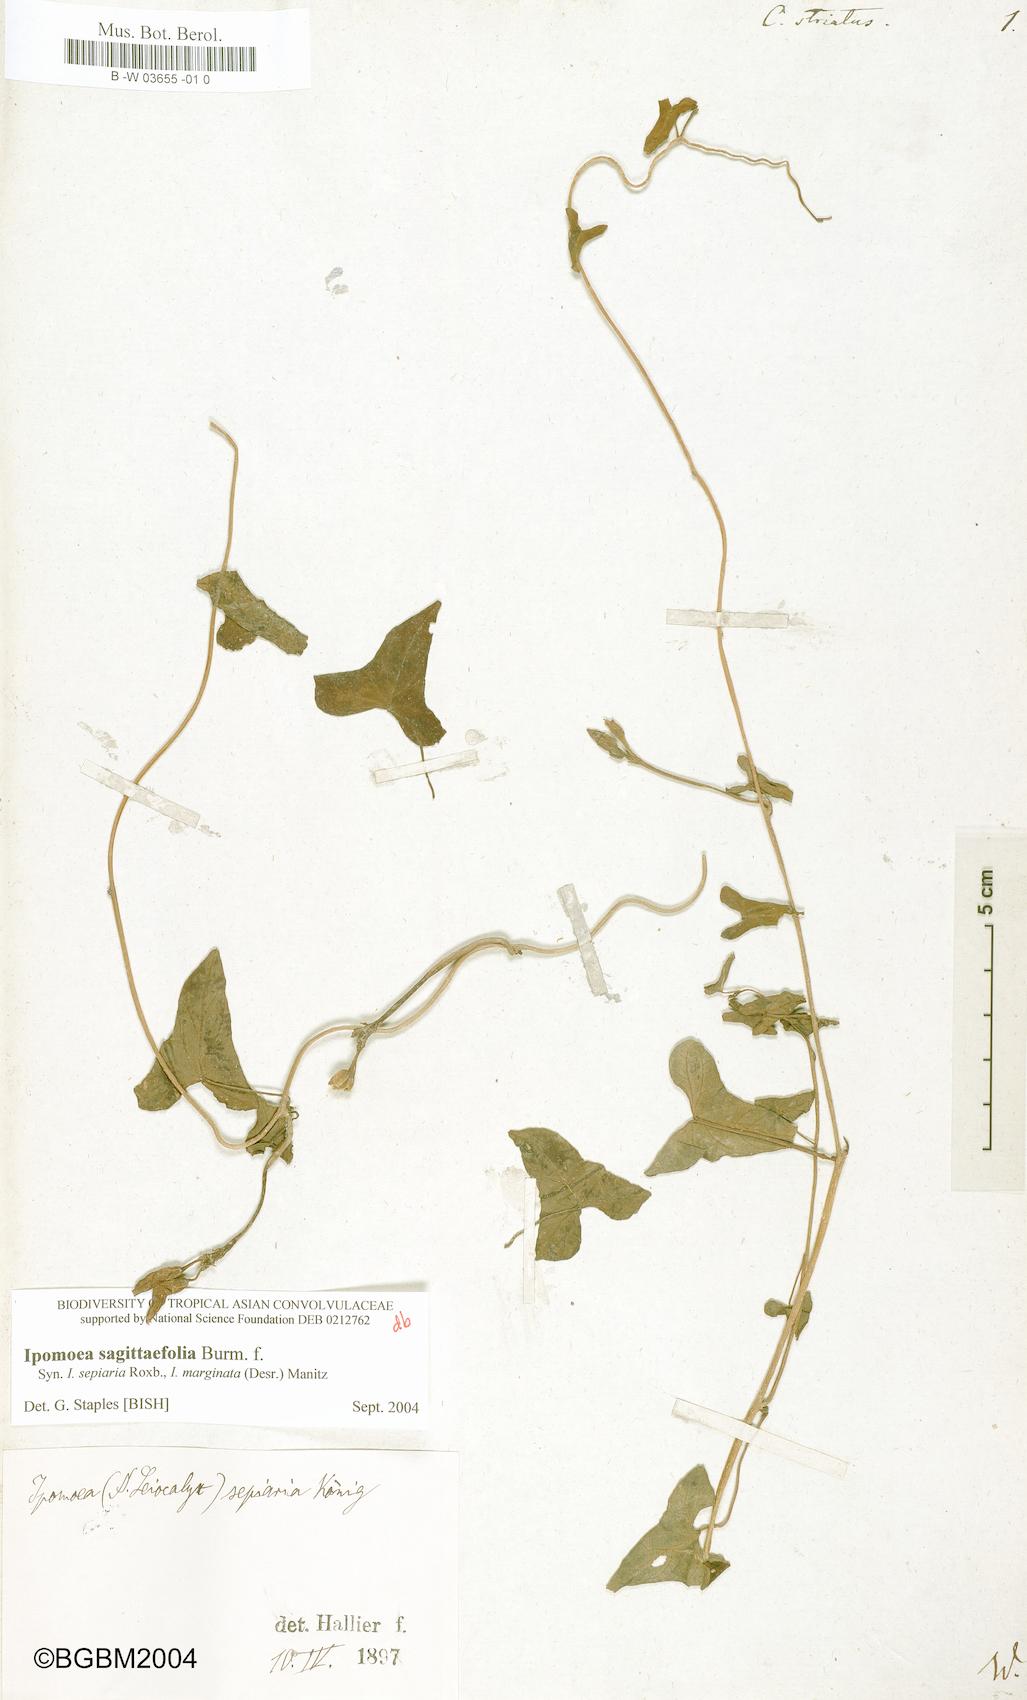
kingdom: Plantae
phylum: Tracheophyta
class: Magnoliopsida
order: Solanales
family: Convolvulaceae
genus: Merremia
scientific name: Merremia gemella
